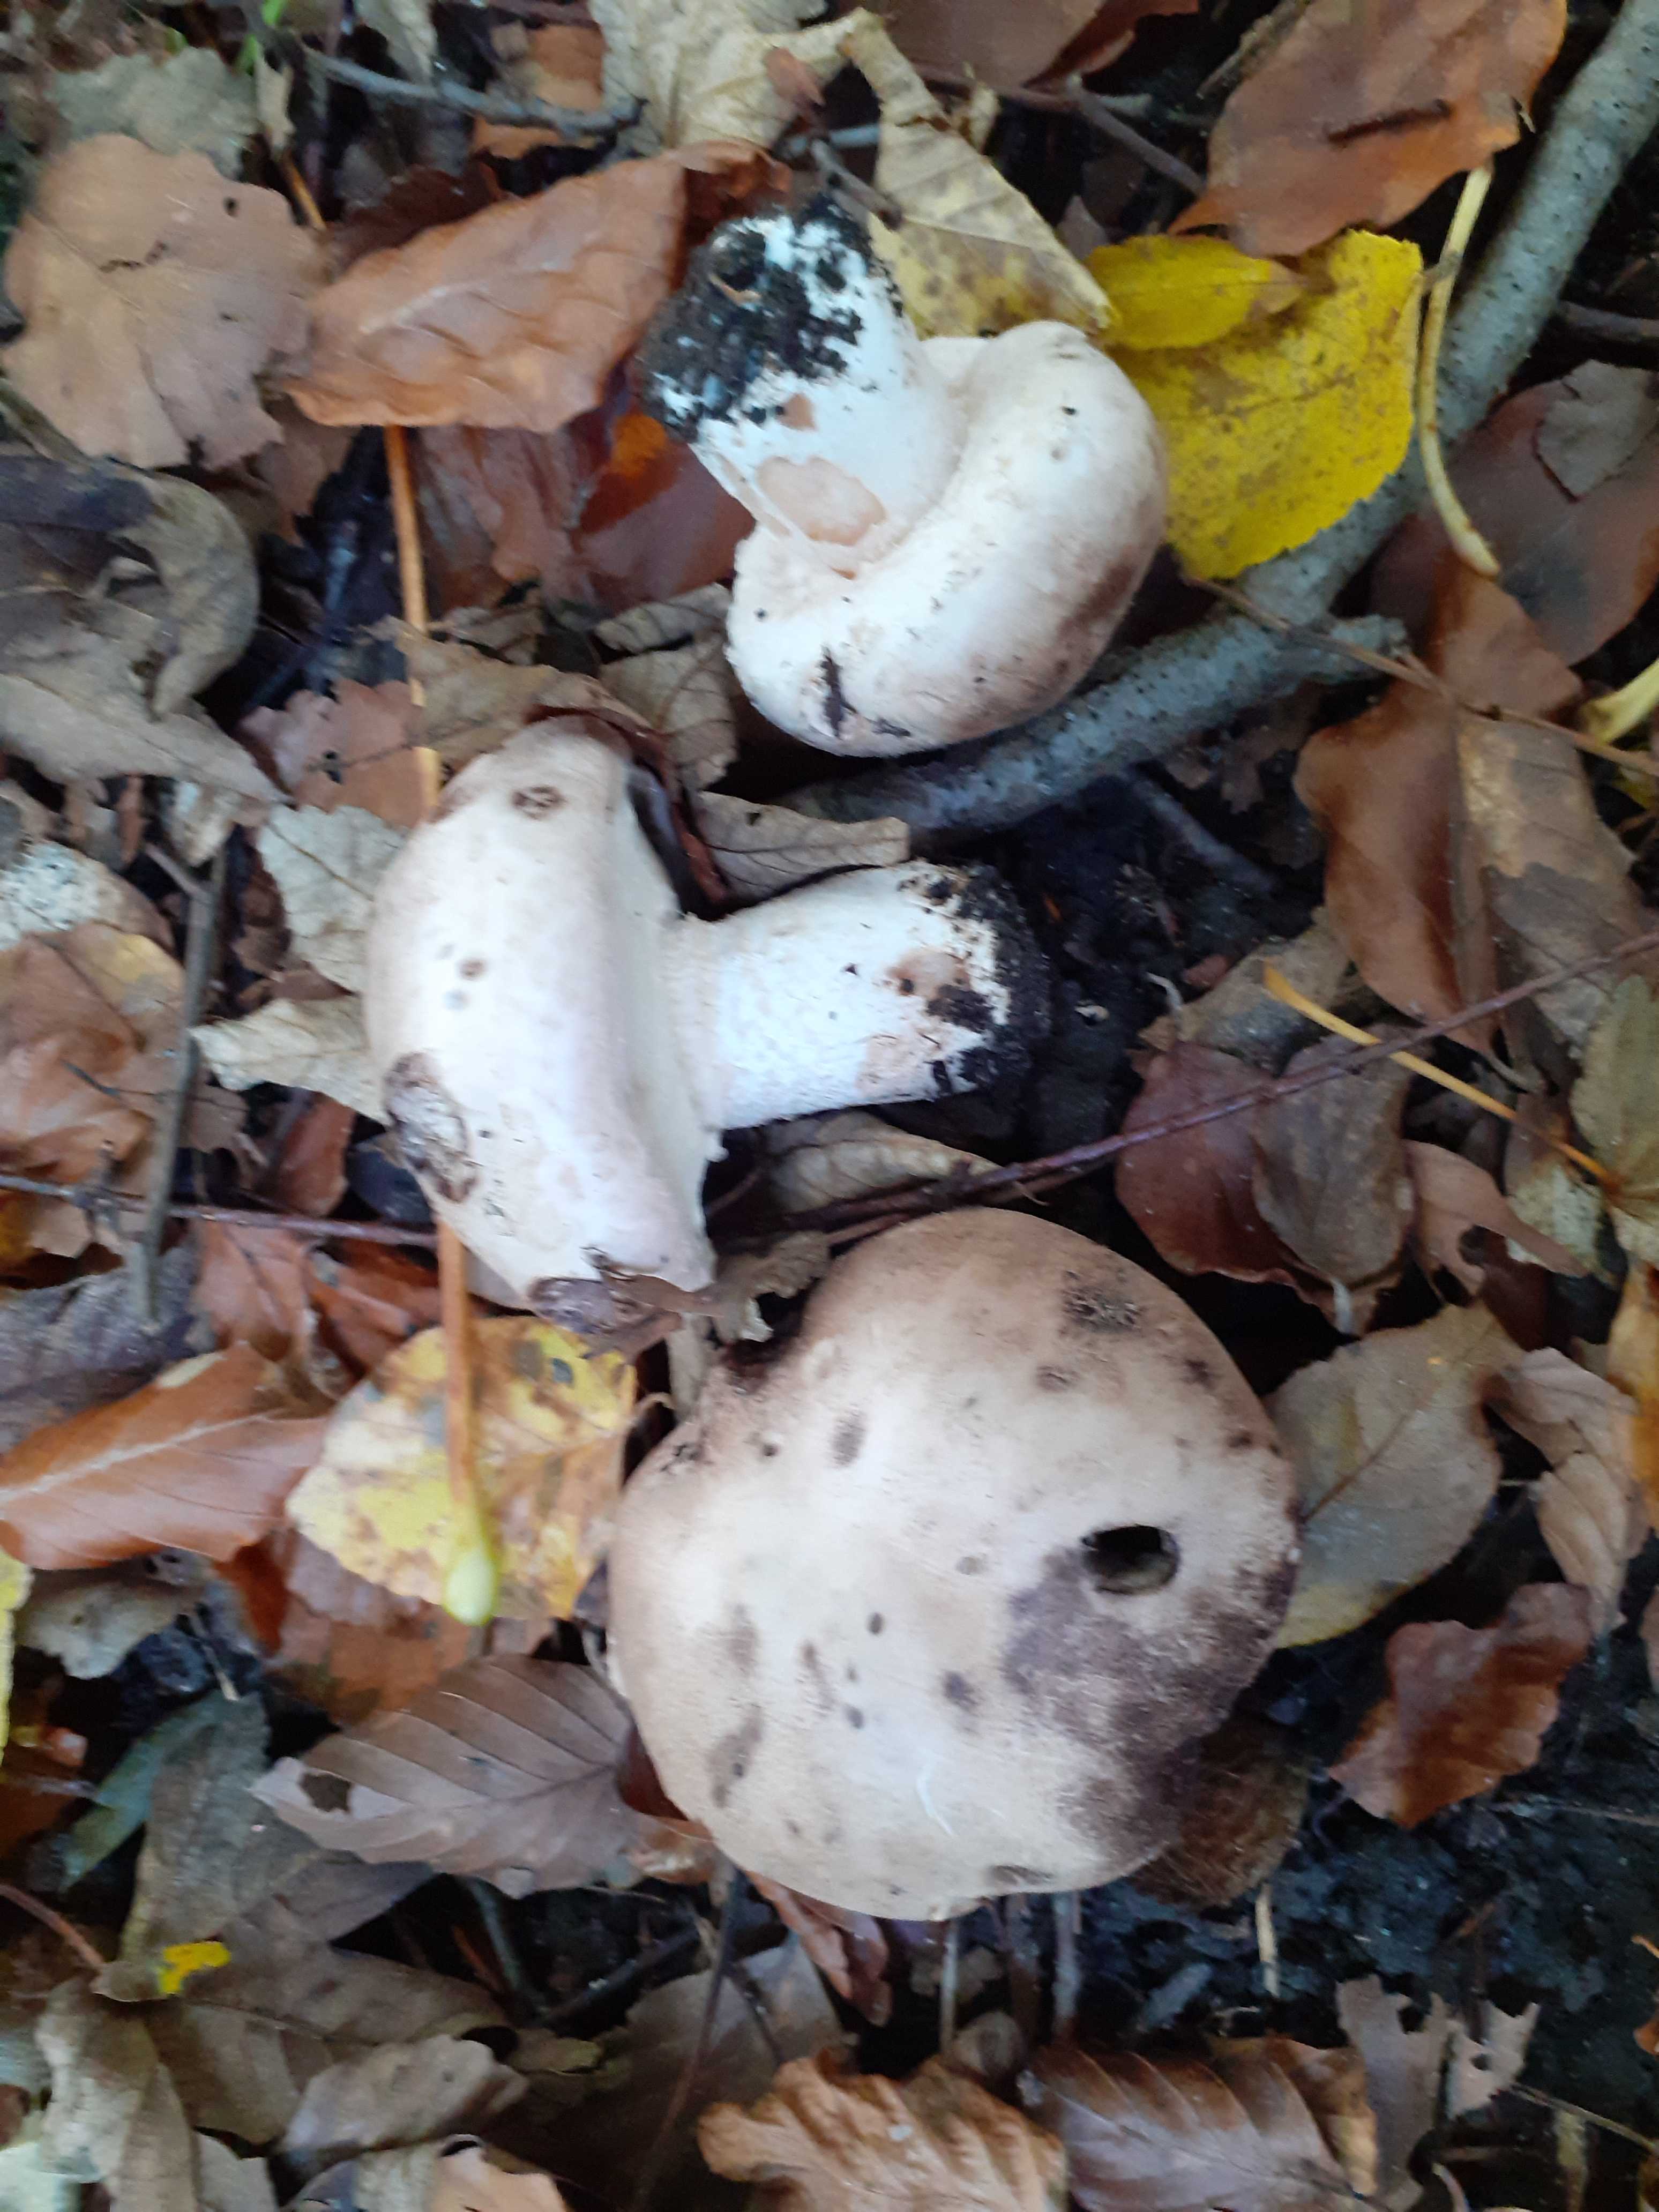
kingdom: Fungi
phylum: Basidiomycota
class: Agaricomycetes
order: Agaricales
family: Agaricaceae
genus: Agaricus
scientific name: Agaricus subfloccosus
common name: randskællet champignon
